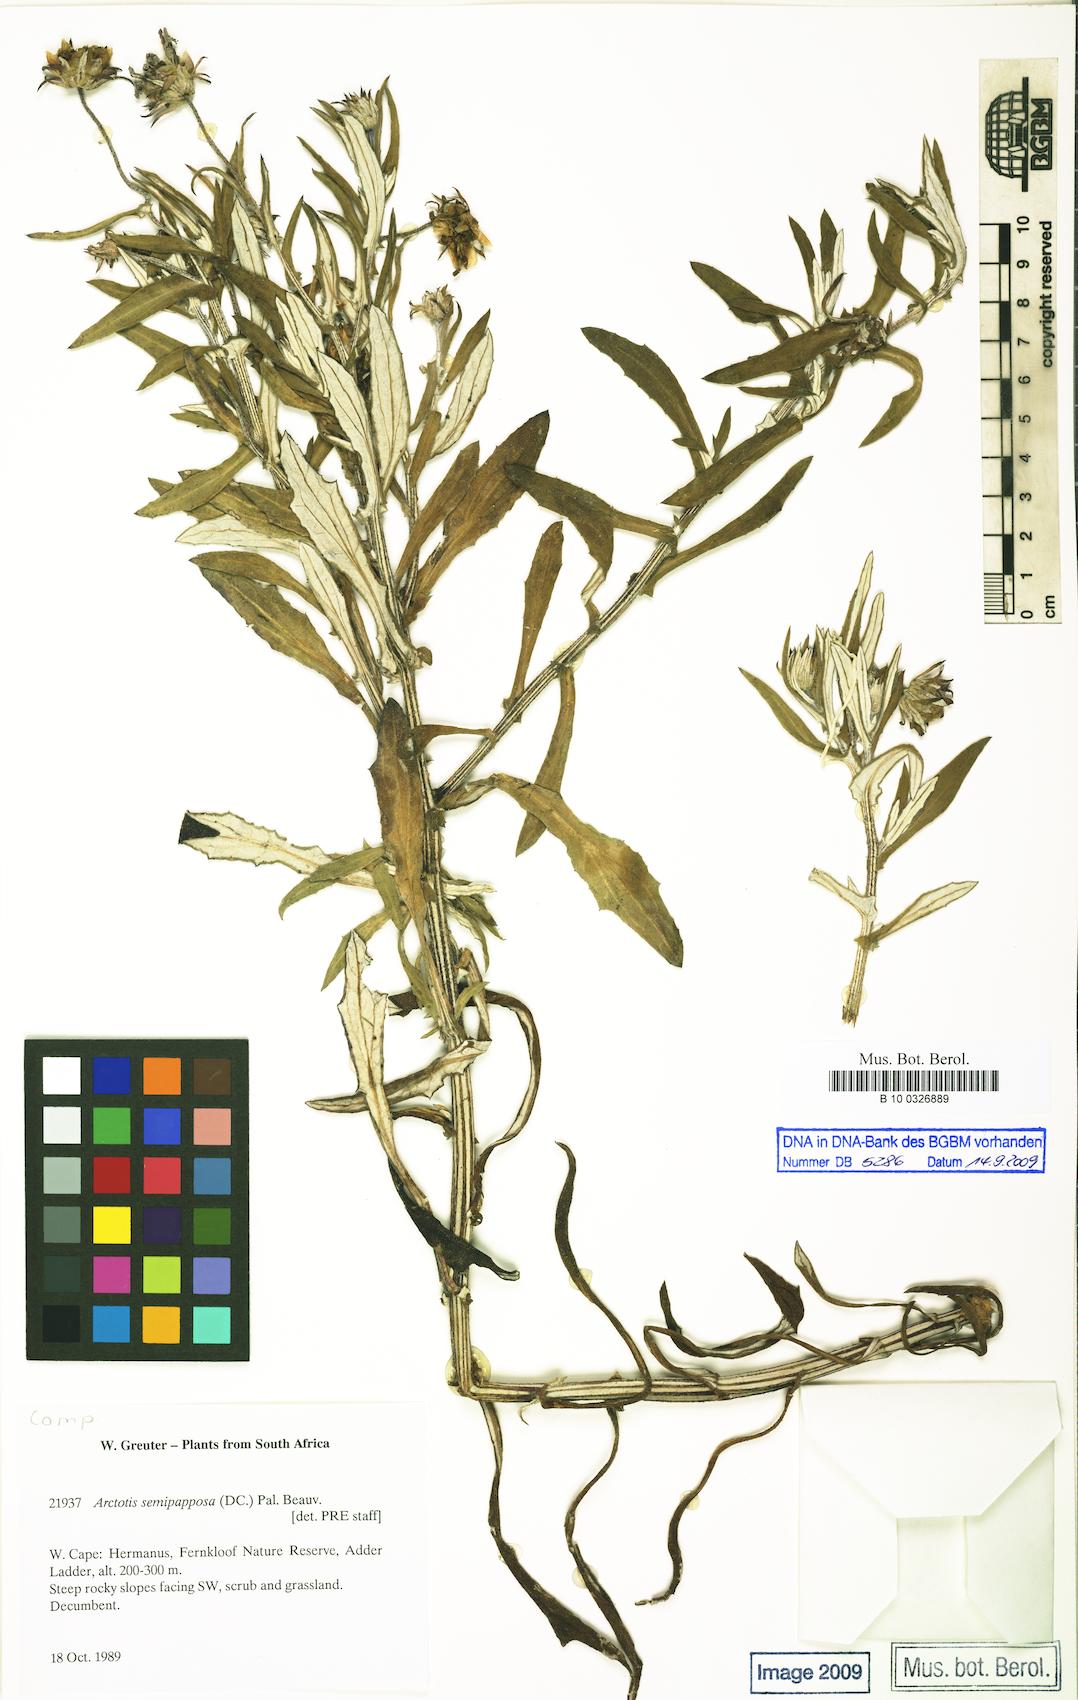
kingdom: Plantae
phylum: Tracheophyta
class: Magnoliopsida
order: Asterales
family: Asteraceae
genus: Arctotis
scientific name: Arctotis scabra
